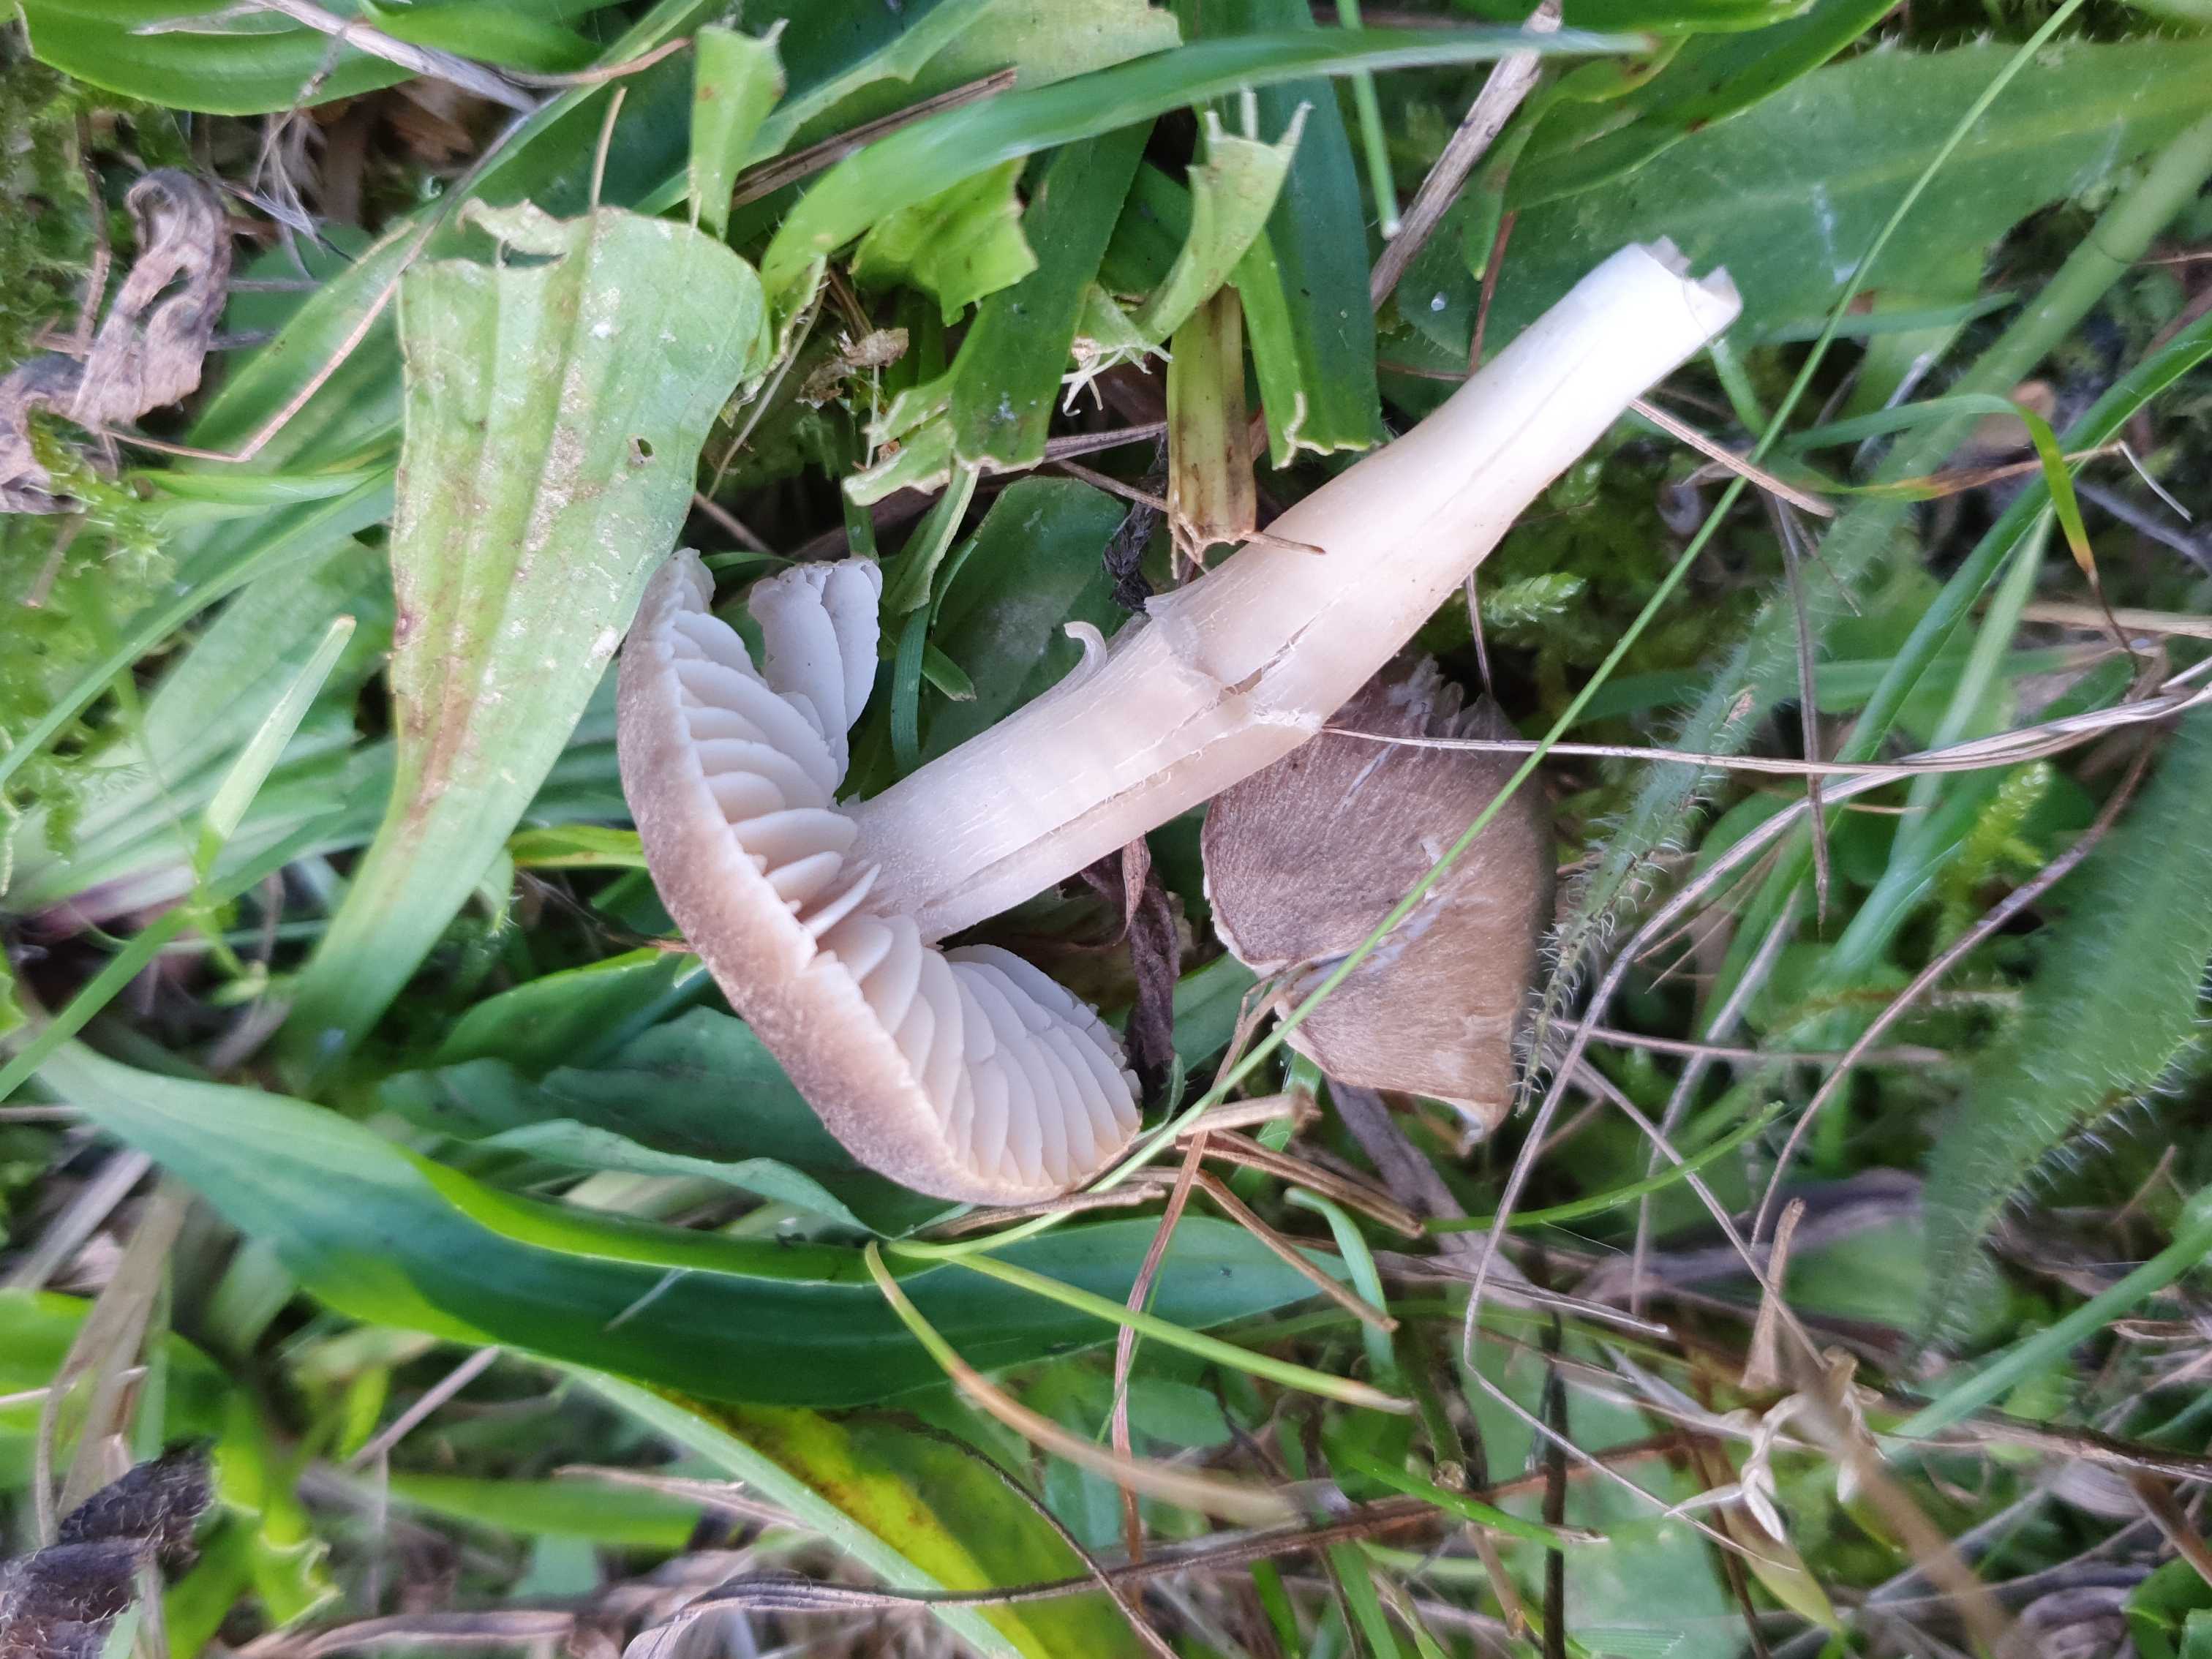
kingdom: Fungi
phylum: Basidiomycota
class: Agaricomycetes
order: Agaricales
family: Hygrophoraceae
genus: Neohygrocybe
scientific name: Neohygrocybe nitrata
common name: stinkende vokshat
